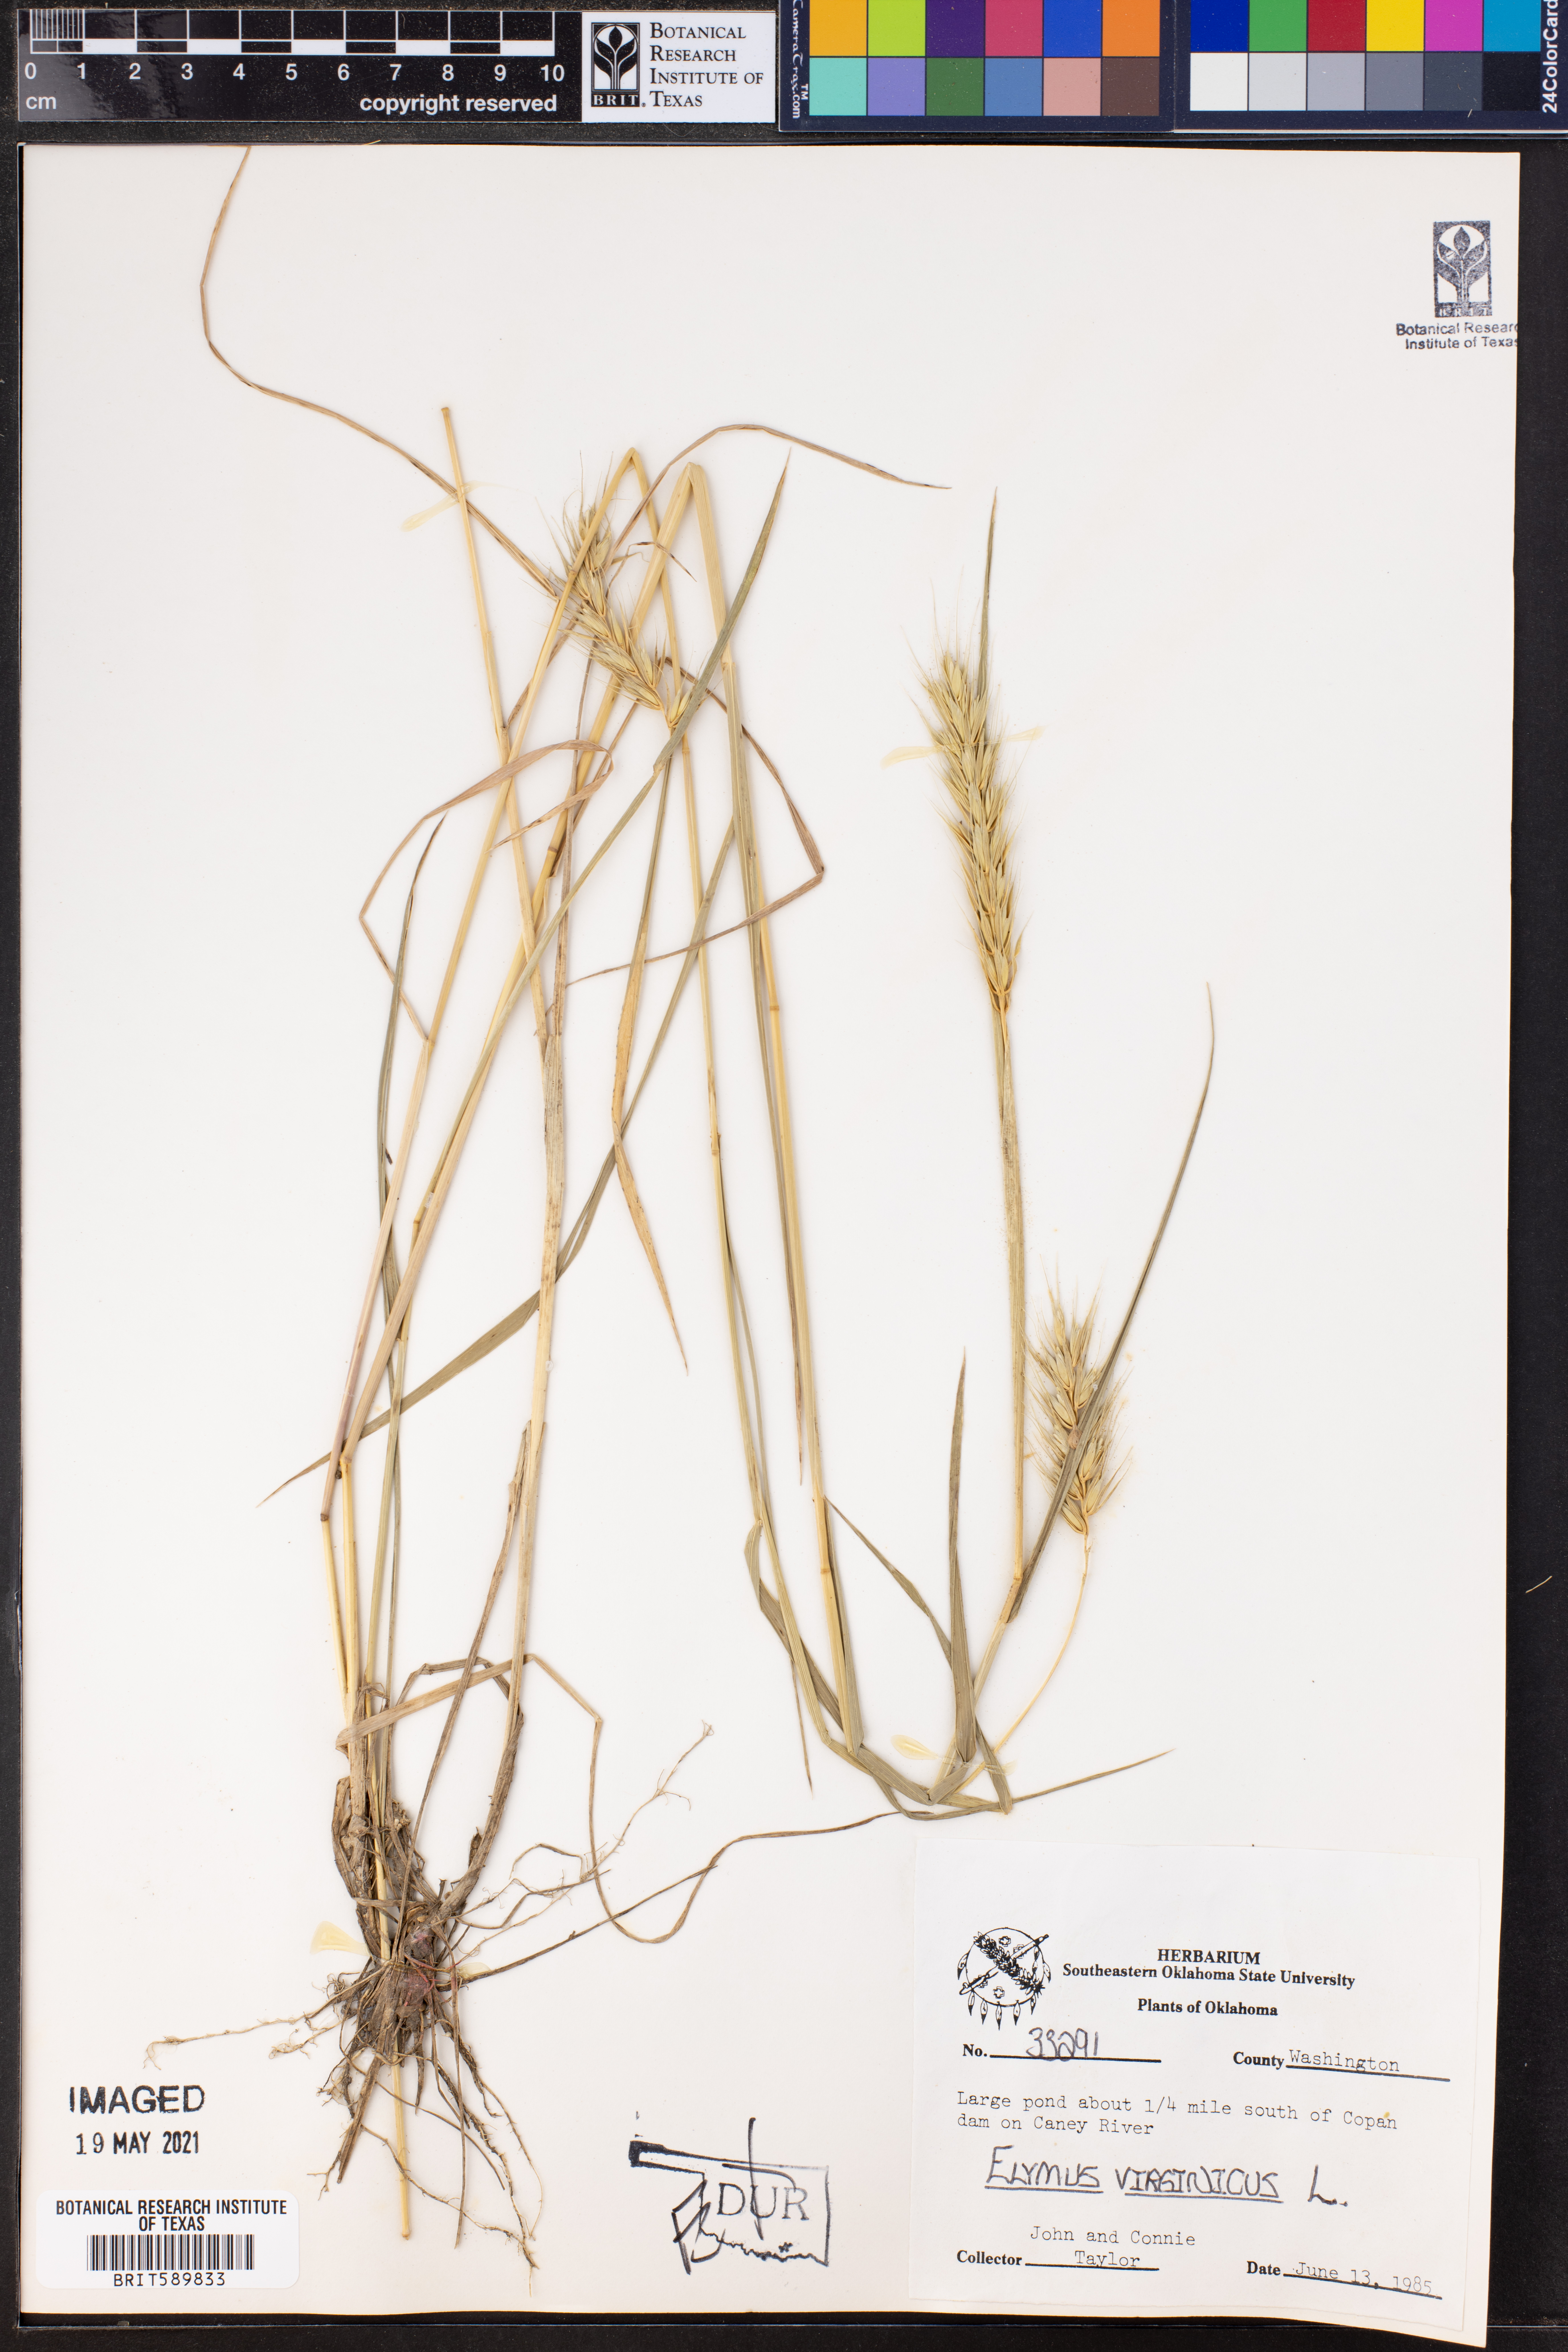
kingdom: Plantae
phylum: Tracheophyta
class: Liliopsida
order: Poales
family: Poaceae
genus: Elymus
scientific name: Elymus virginicus
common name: Common eastern wildrye
